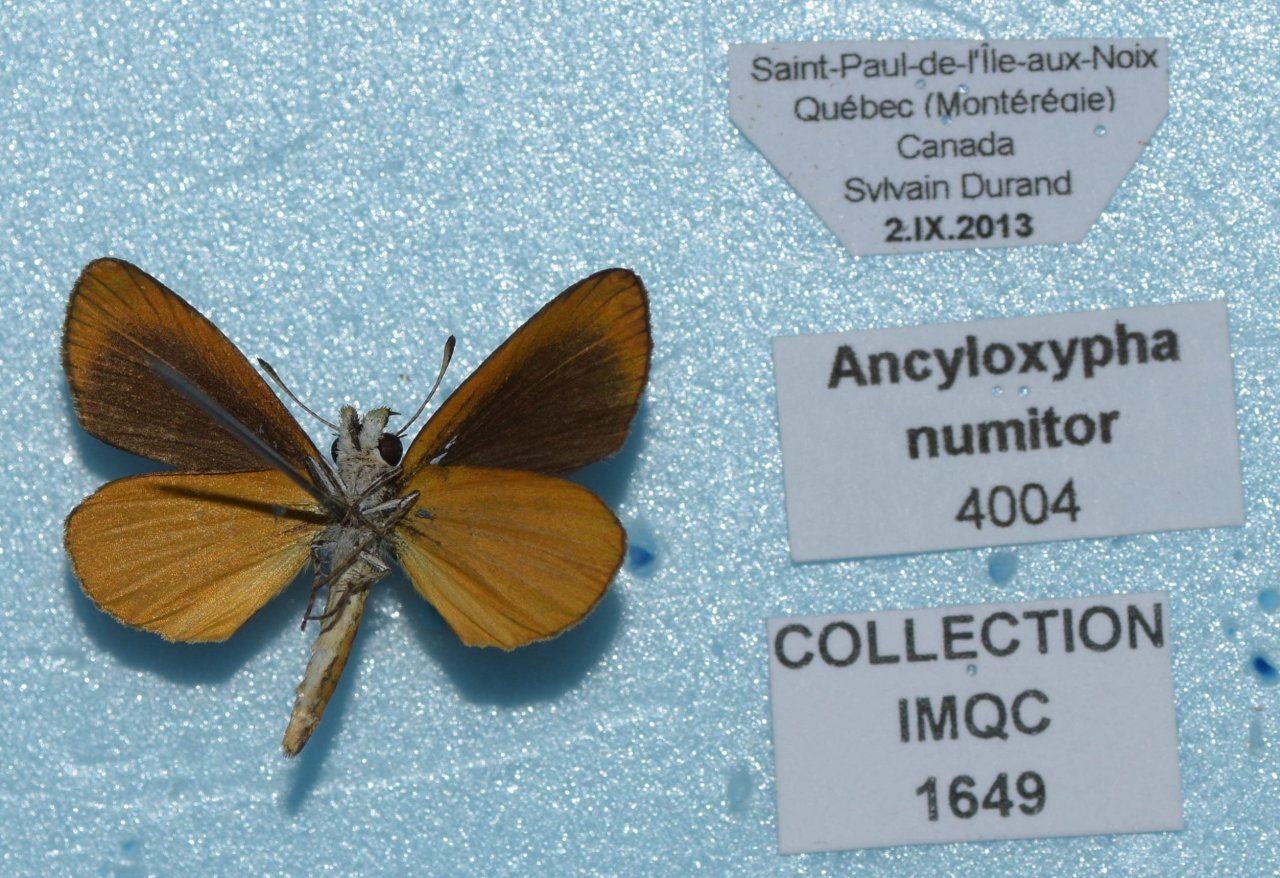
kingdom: Animalia
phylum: Arthropoda
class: Insecta
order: Lepidoptera
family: Hesperiidae
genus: Ancyloxypha
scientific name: Ancyloxypha numitor
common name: Least Skipper
